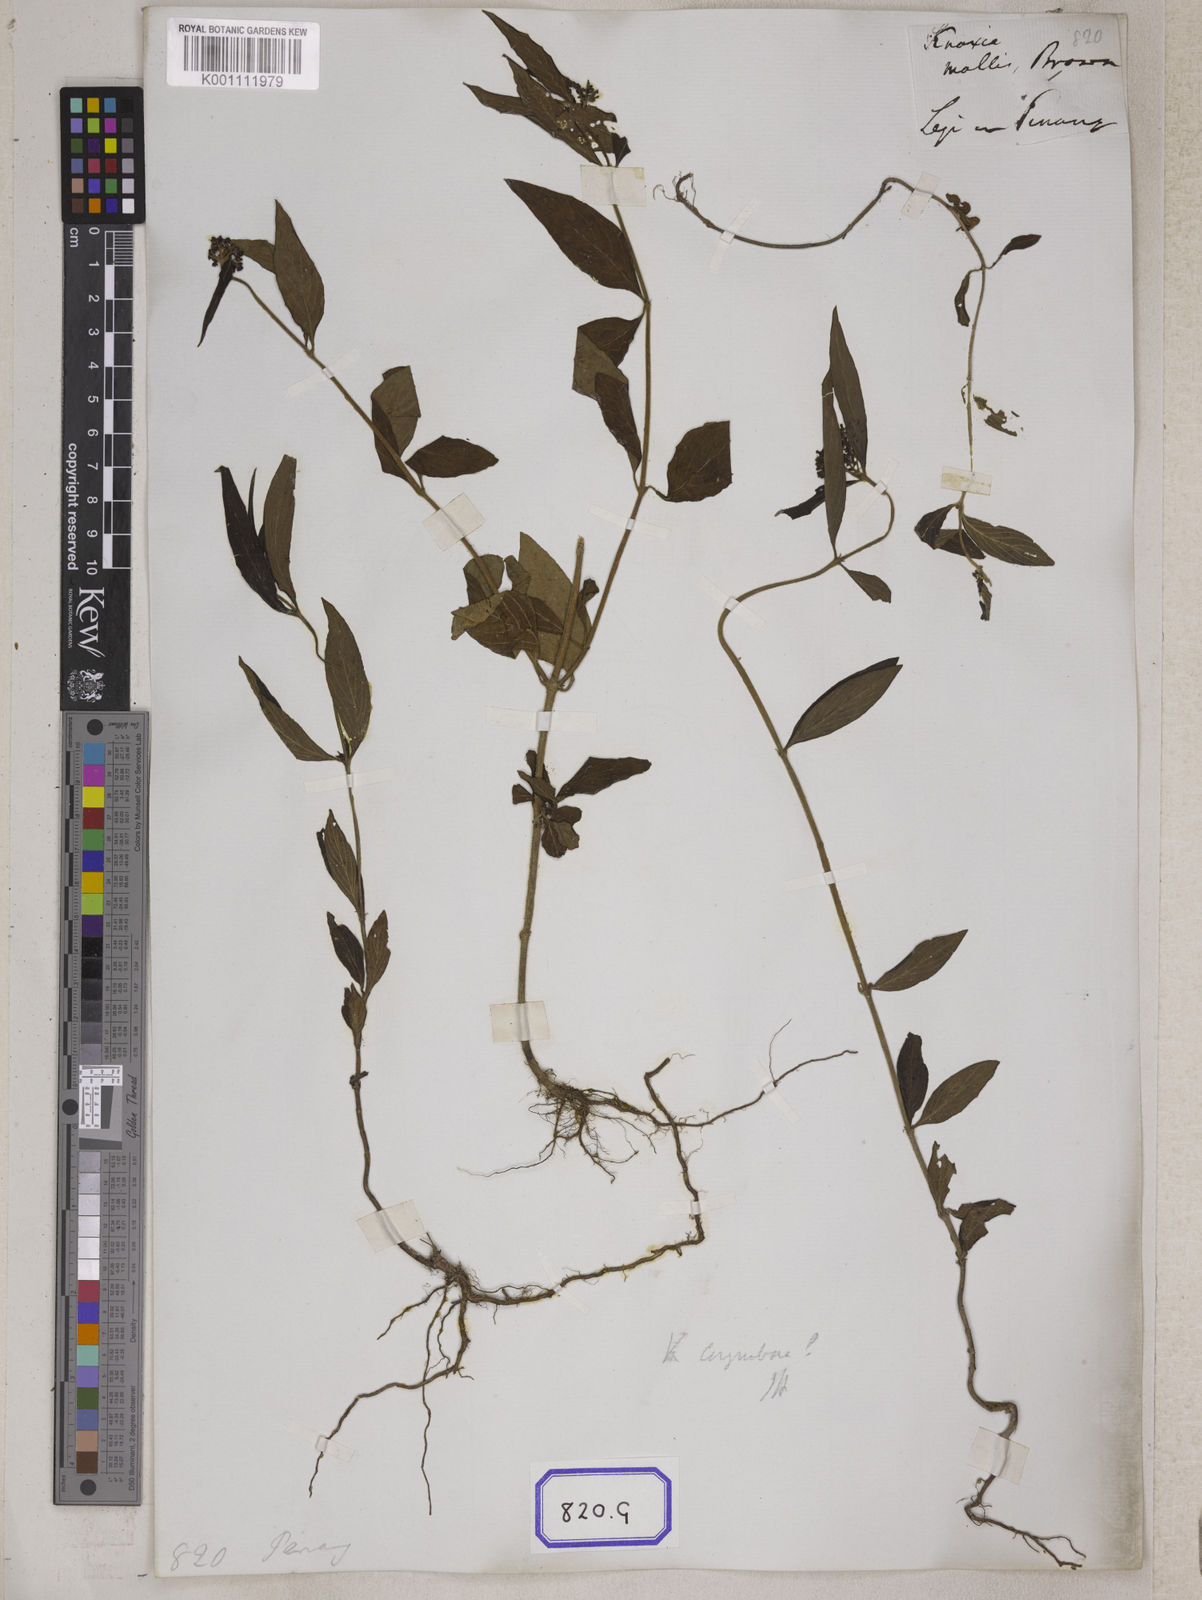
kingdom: Plantae
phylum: Tracheophyta
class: Magnoliopsida
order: Gentianales
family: Rubiaceae
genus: Knoxia
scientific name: Knoxia
